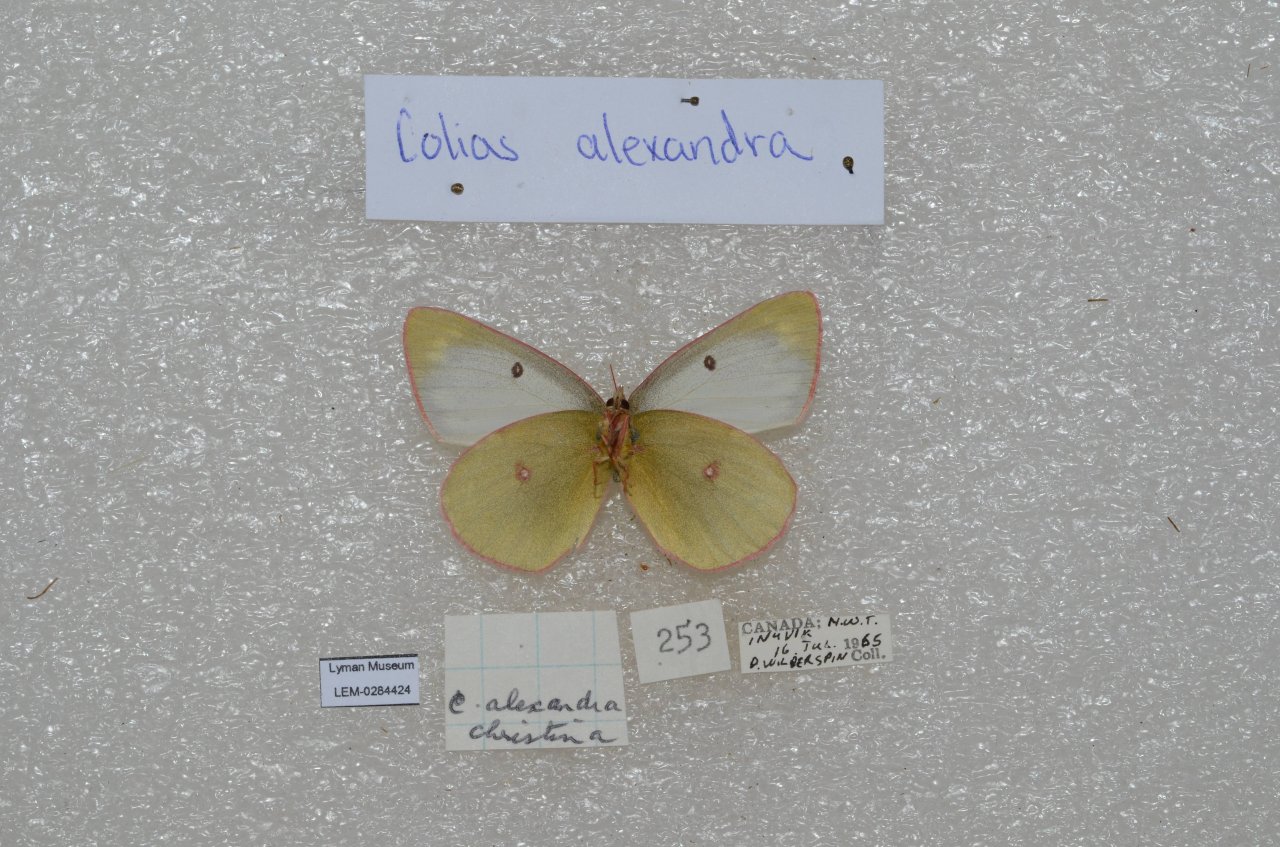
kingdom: Animalia
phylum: Arthropoda
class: Insecta
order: Lepidoptera
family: Pieridae
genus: Colias
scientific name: Colias
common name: Clouded Yellows
